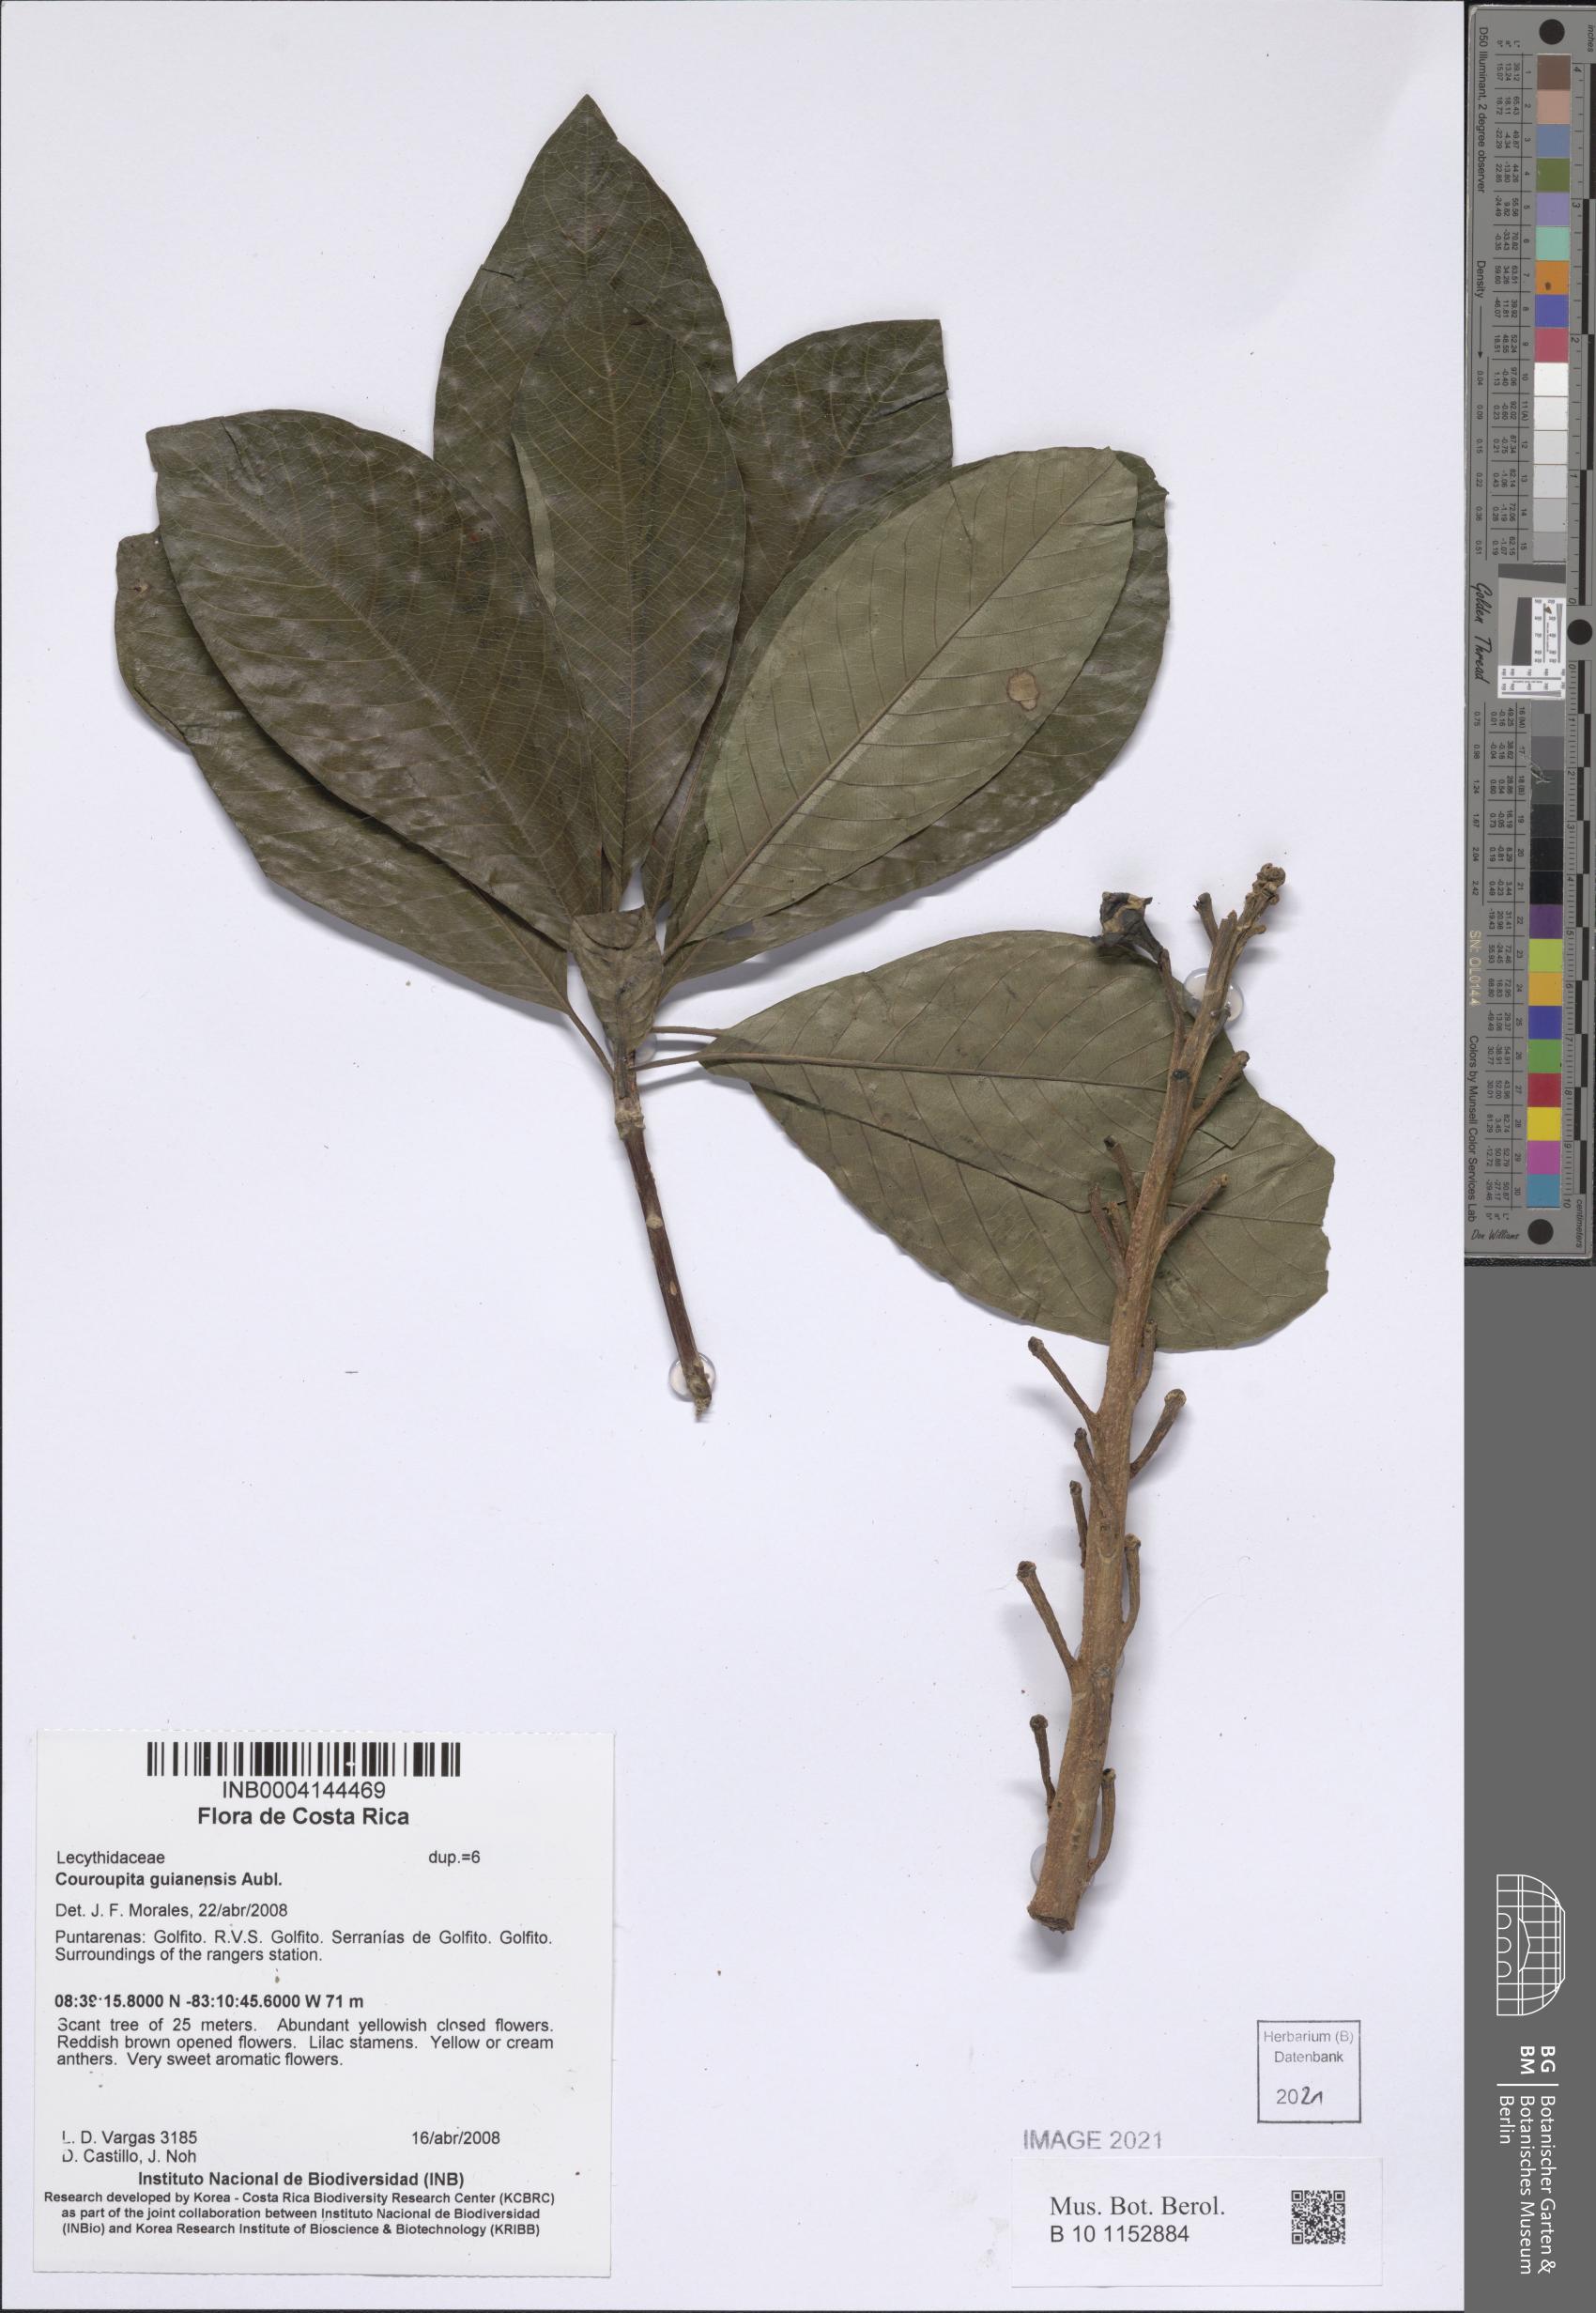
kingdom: Plantae
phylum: Tracheophyta
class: Magnoliopsida
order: Ericales
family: Lecythidaceae
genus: Couroupita
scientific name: Couroupita guianensis
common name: Cannonball tree
